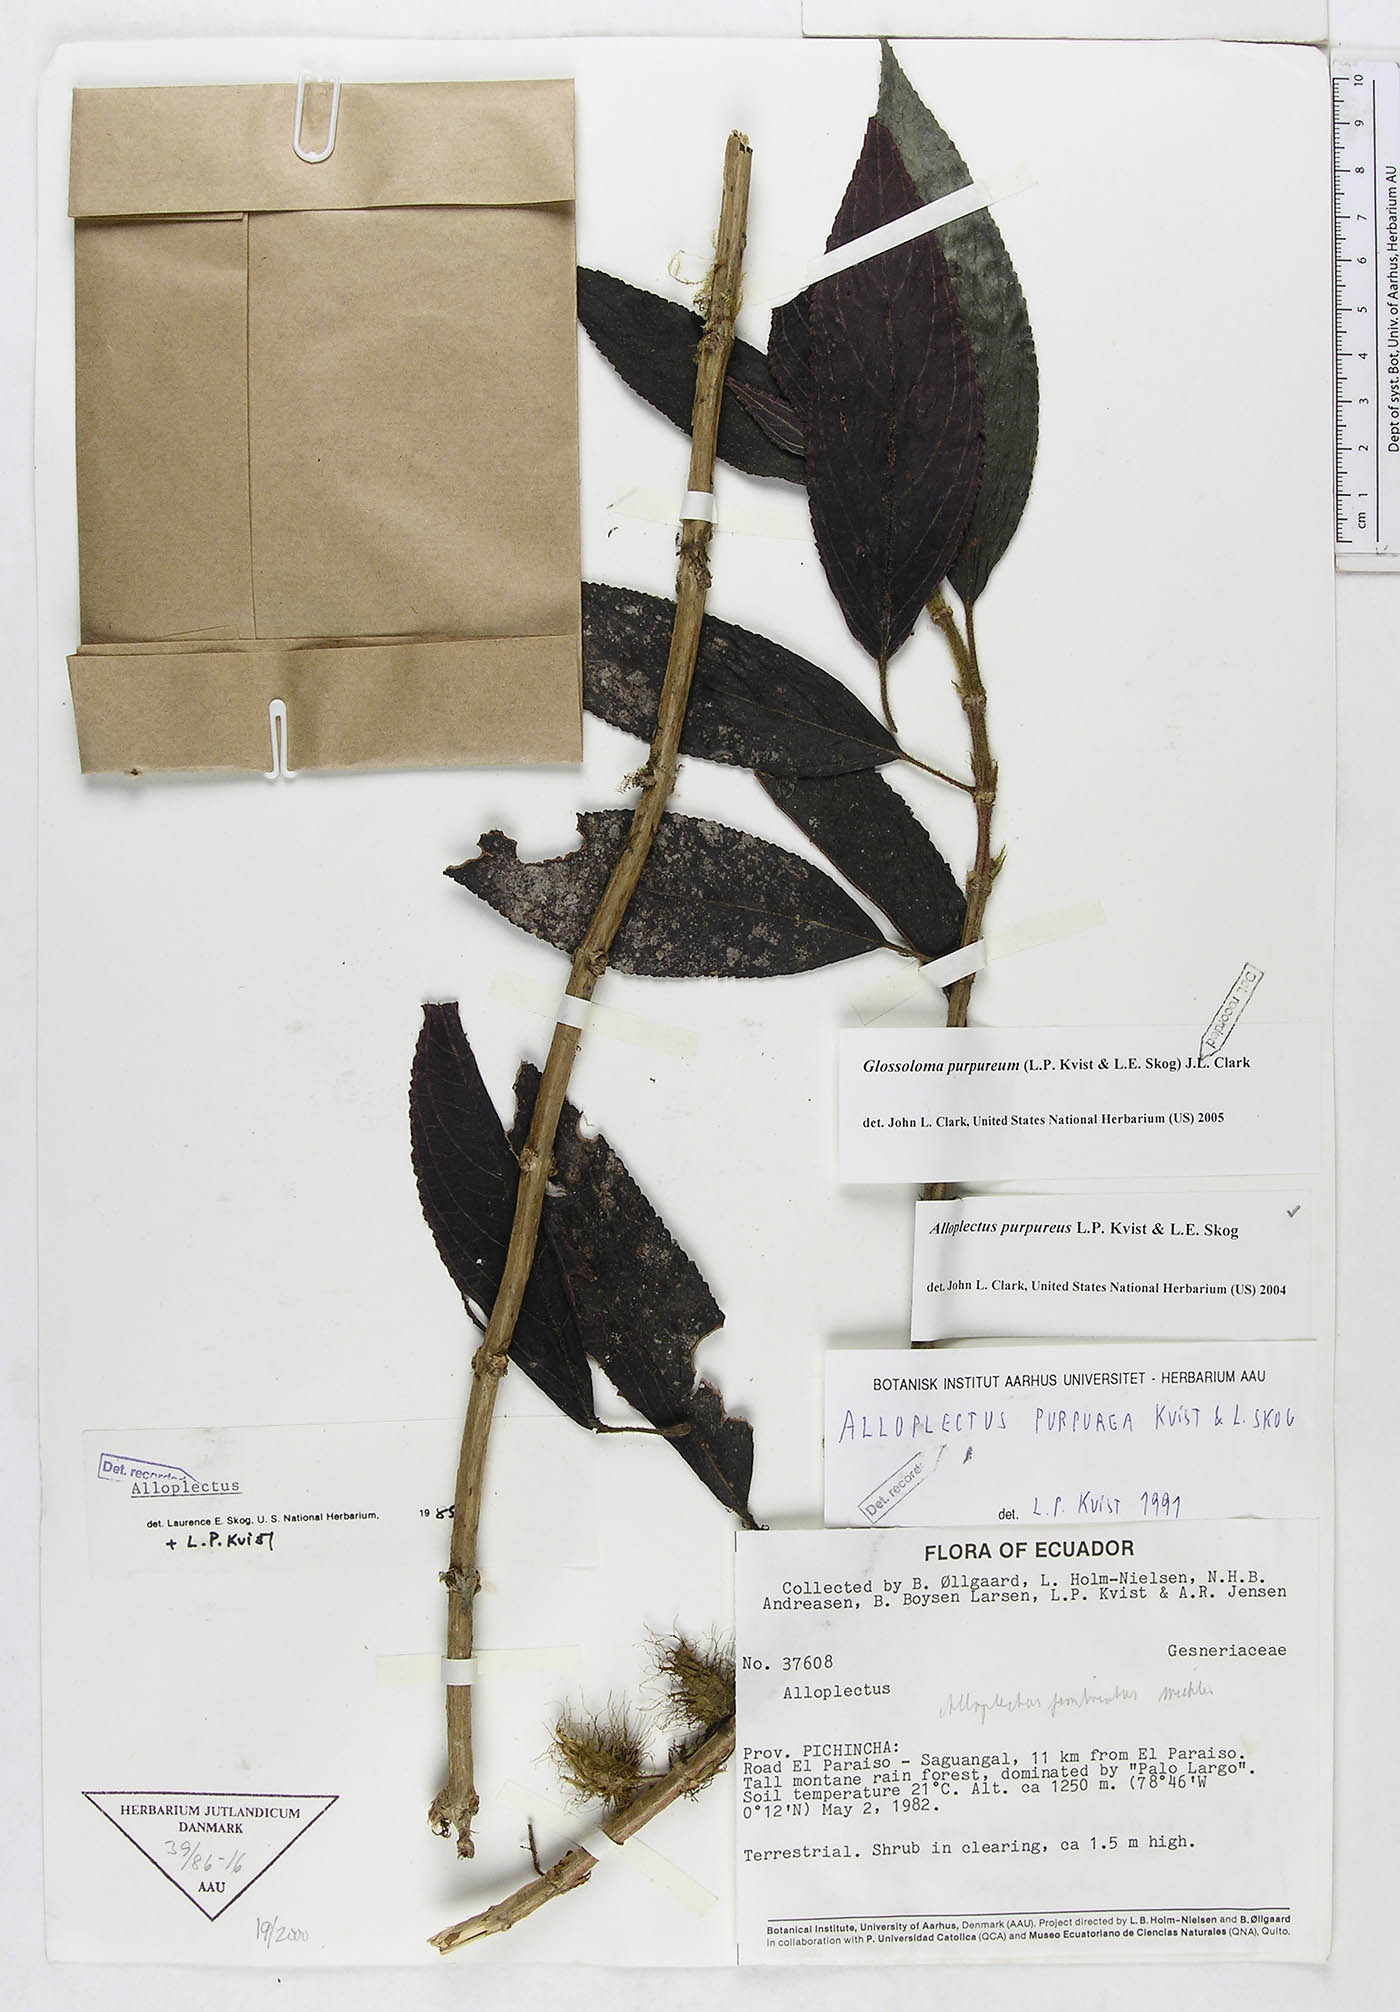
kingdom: Plantae
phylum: Tracheophyta
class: Magnoliopsida
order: Lamiales
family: Gesneriaceae
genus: Glossoloma
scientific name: Glossoloma purpureum
